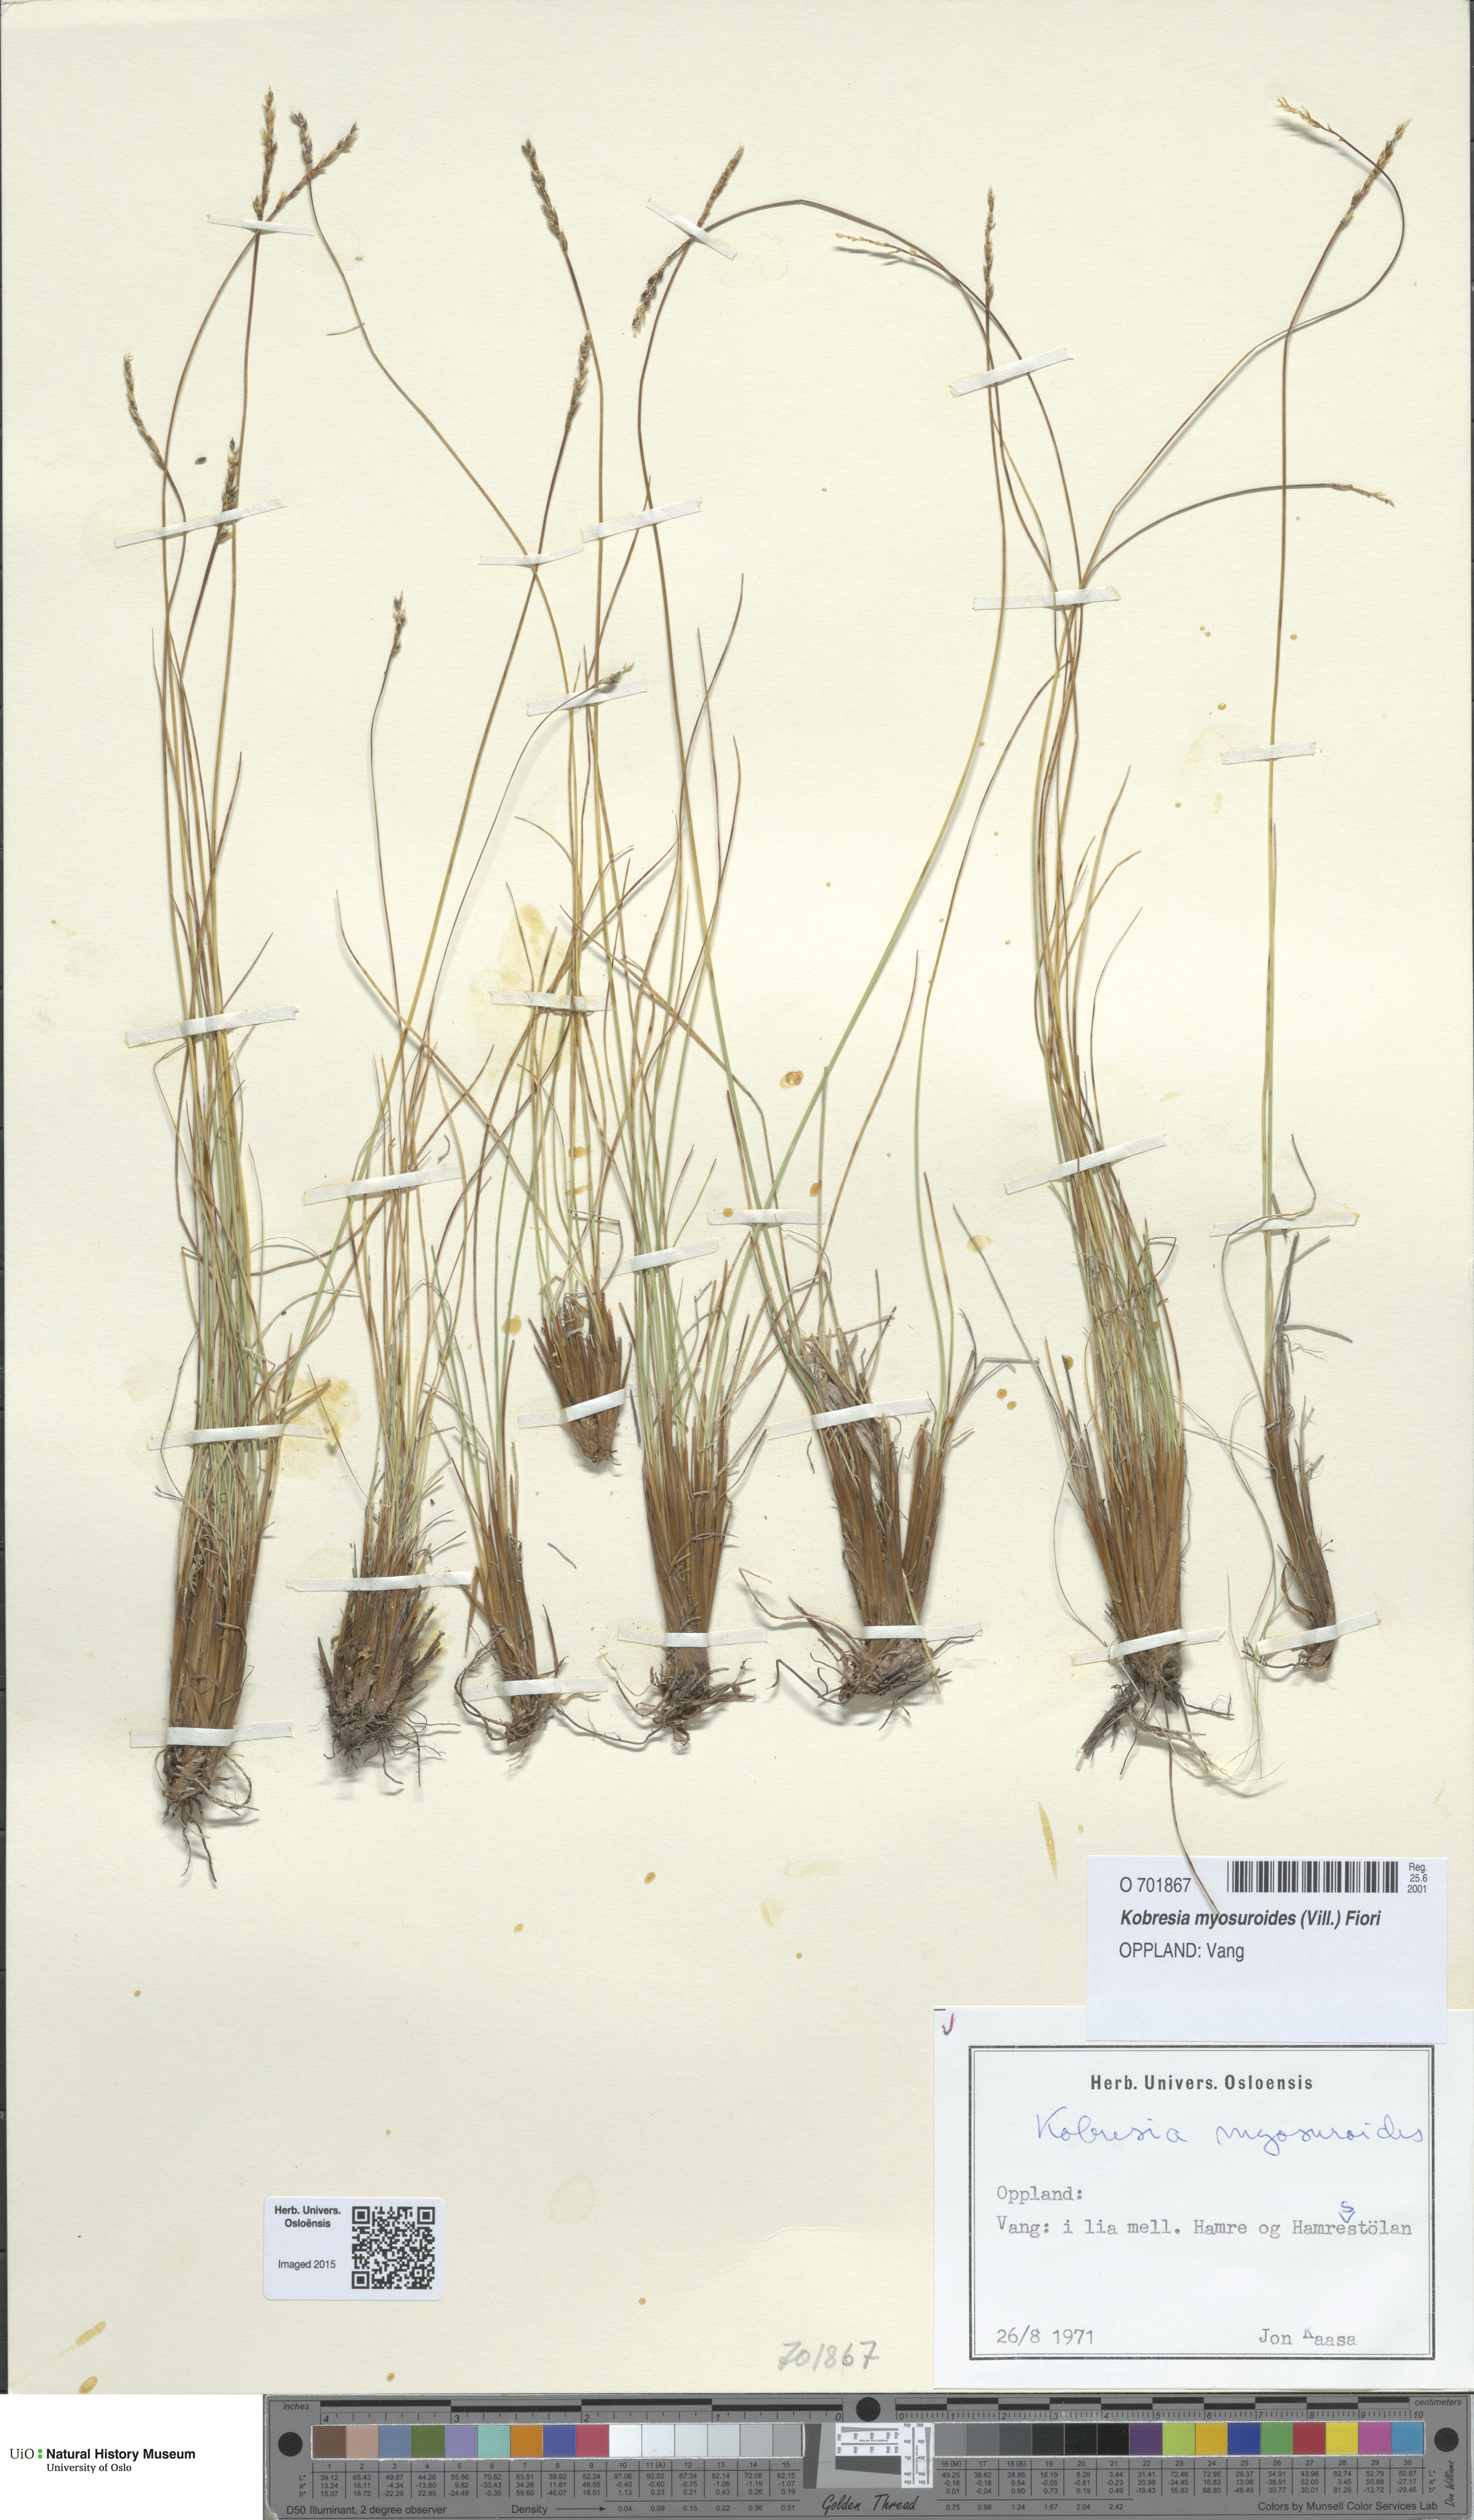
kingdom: Plantae
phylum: Tracheophyta
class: Liliopsida
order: Poales
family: Cyperaceae
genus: Carex
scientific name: Carex myosuroides
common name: Bellard's bog sedge
